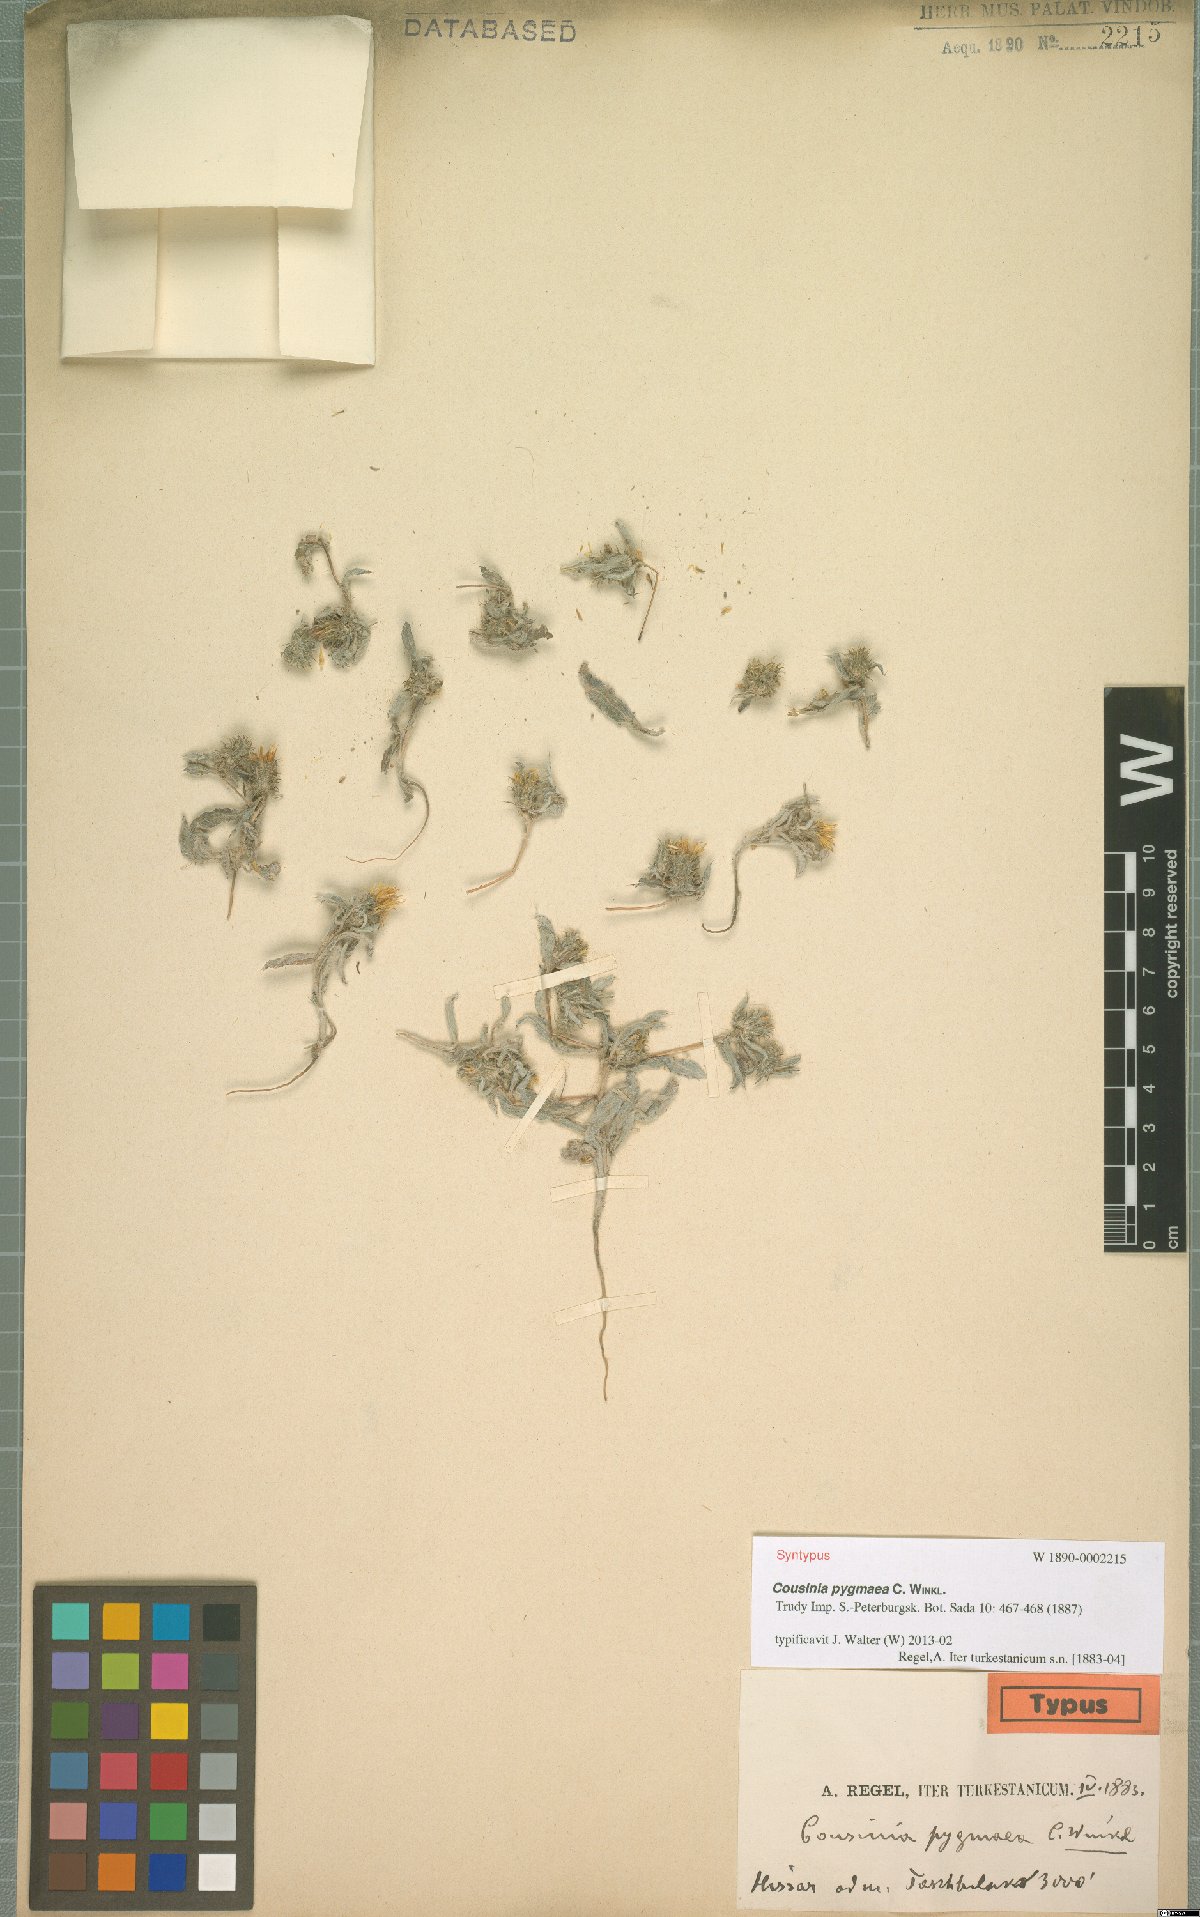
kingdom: Plantae
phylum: Tracheophyta
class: Magnoliopsida
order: Asterales
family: Asteraceae
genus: Cousinia
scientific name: Cousinia pygmaea
